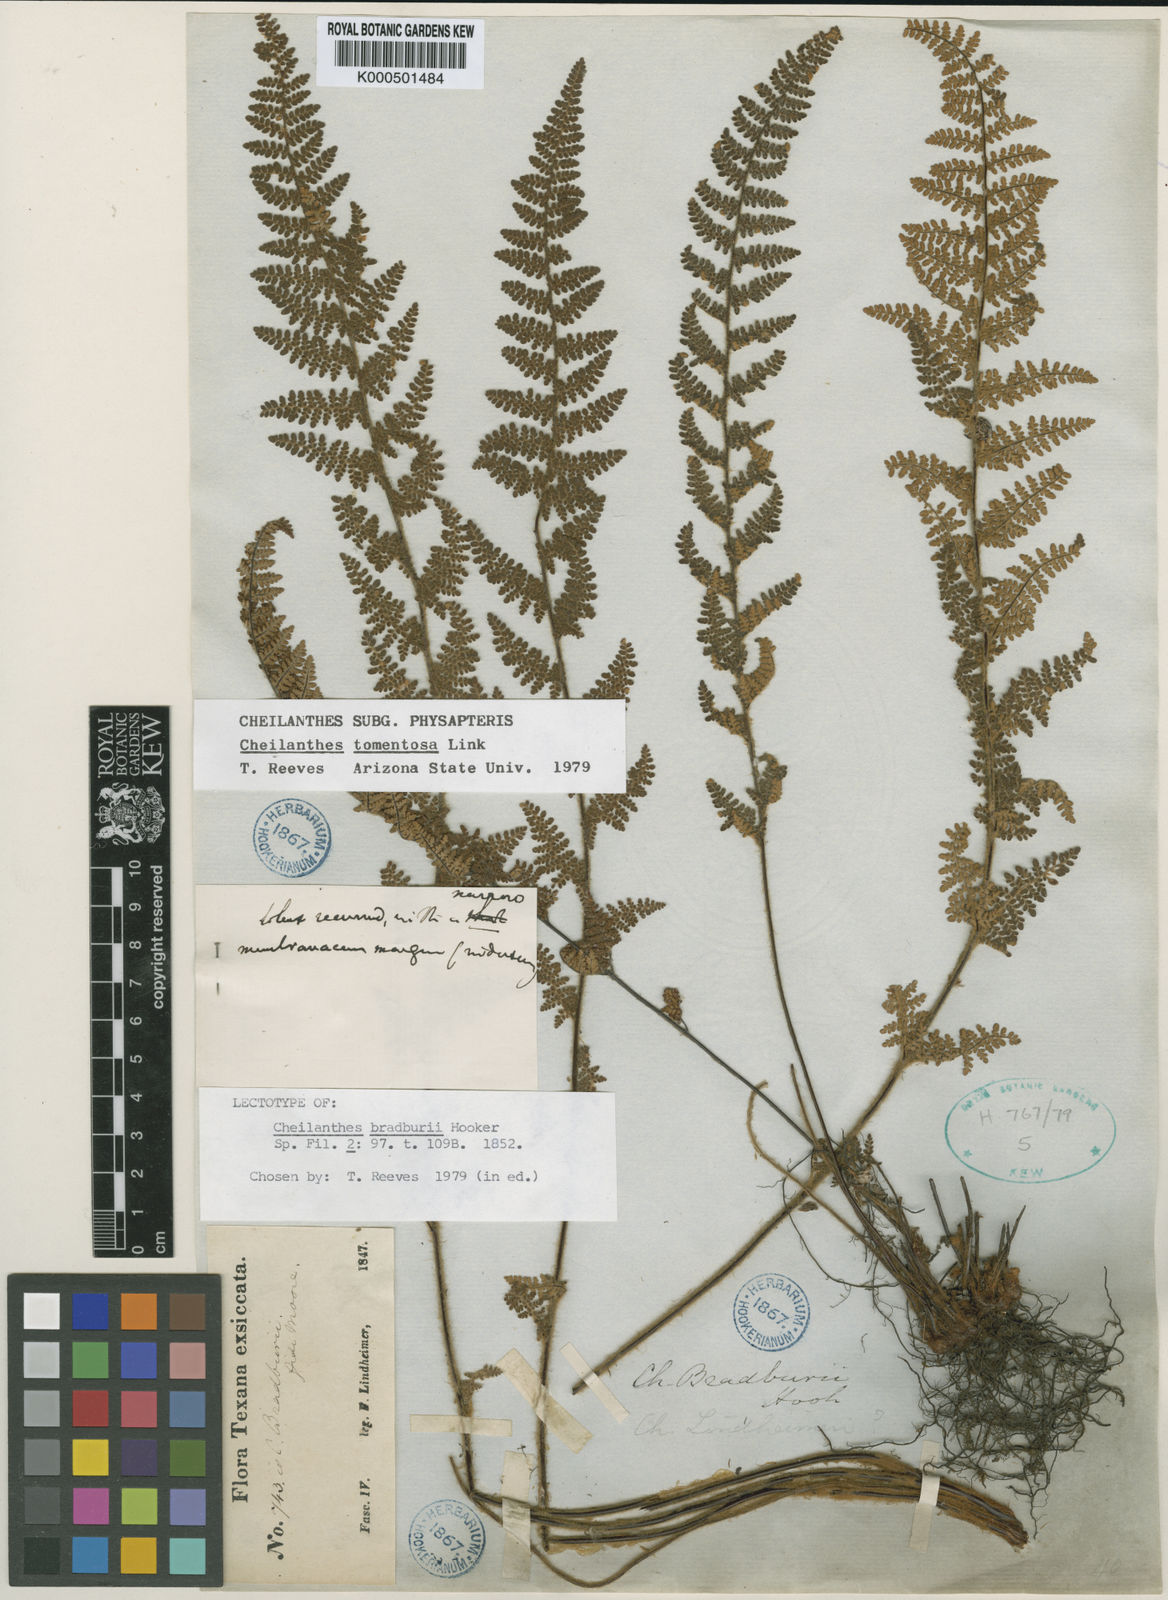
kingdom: Plantae
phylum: Tracheophyta
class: Polypodiopsida
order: Polypodiales
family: Pteridaceae
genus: Myriopteris
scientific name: Myriopteris tomentosa
